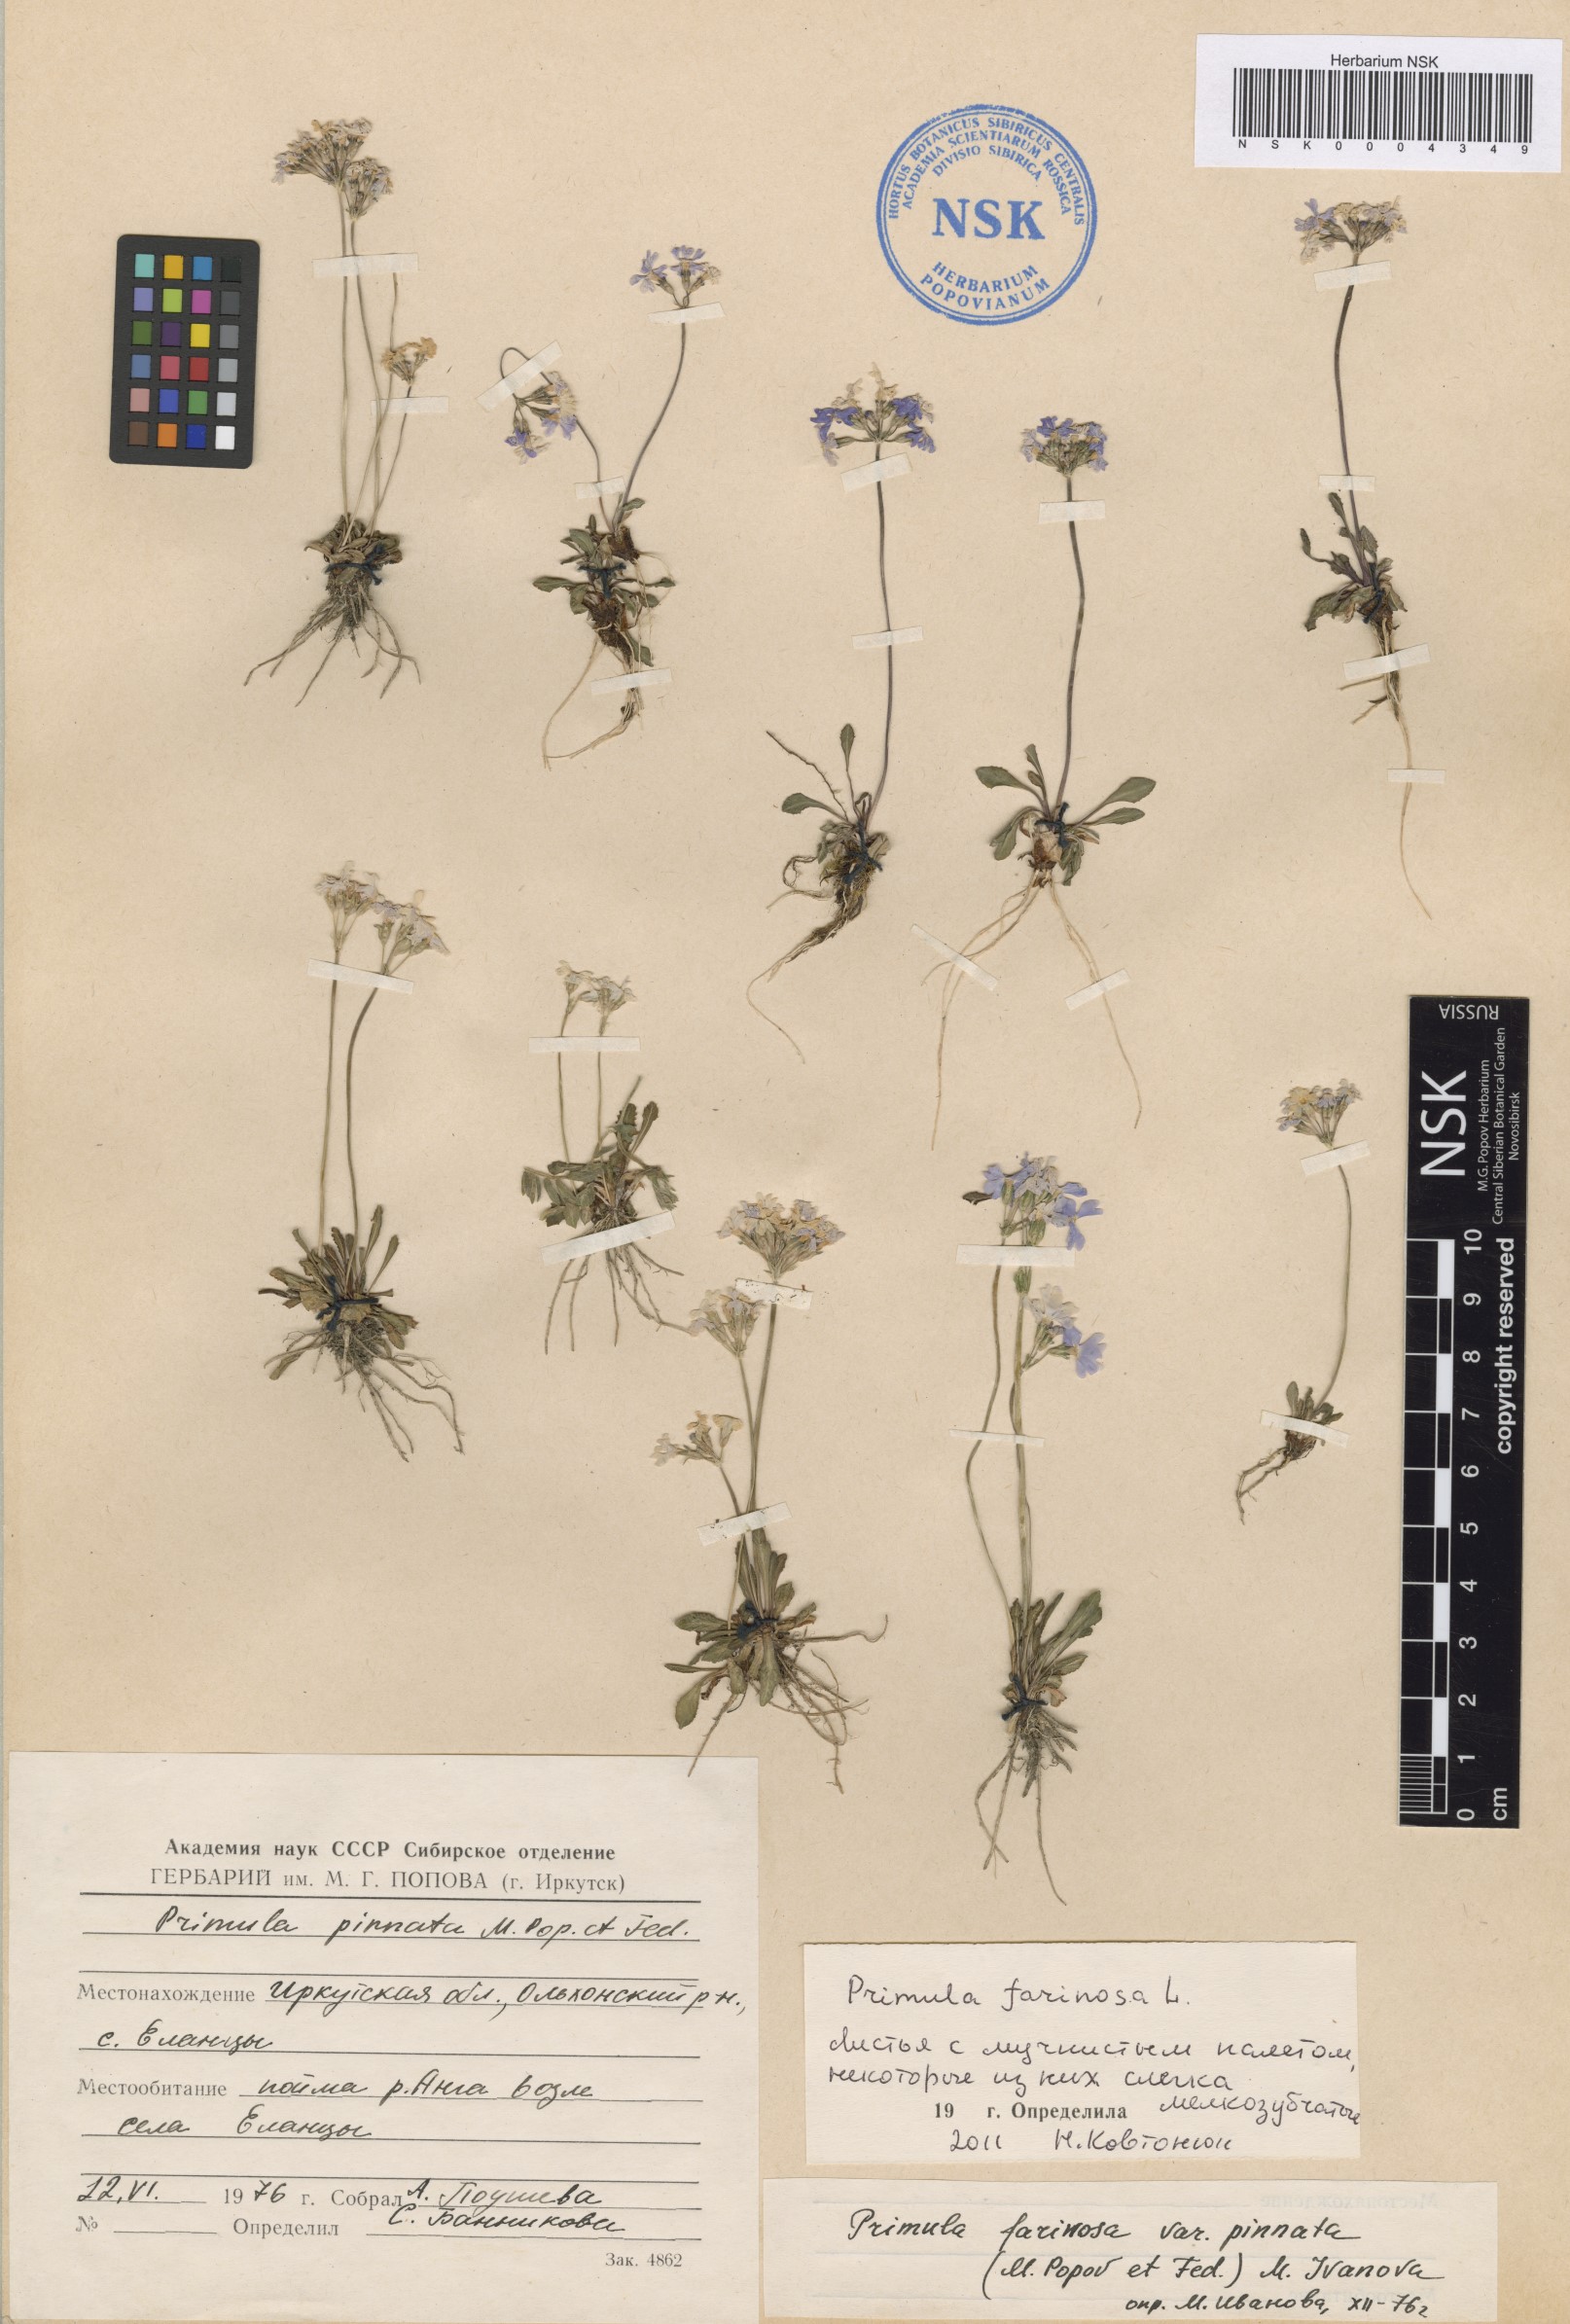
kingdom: Plantae
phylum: Tracheophyta
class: Magnoliopsida
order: Ericales
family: Primulaceae
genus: Primula
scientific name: Primula farinosa
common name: Bird's-eye primrose
